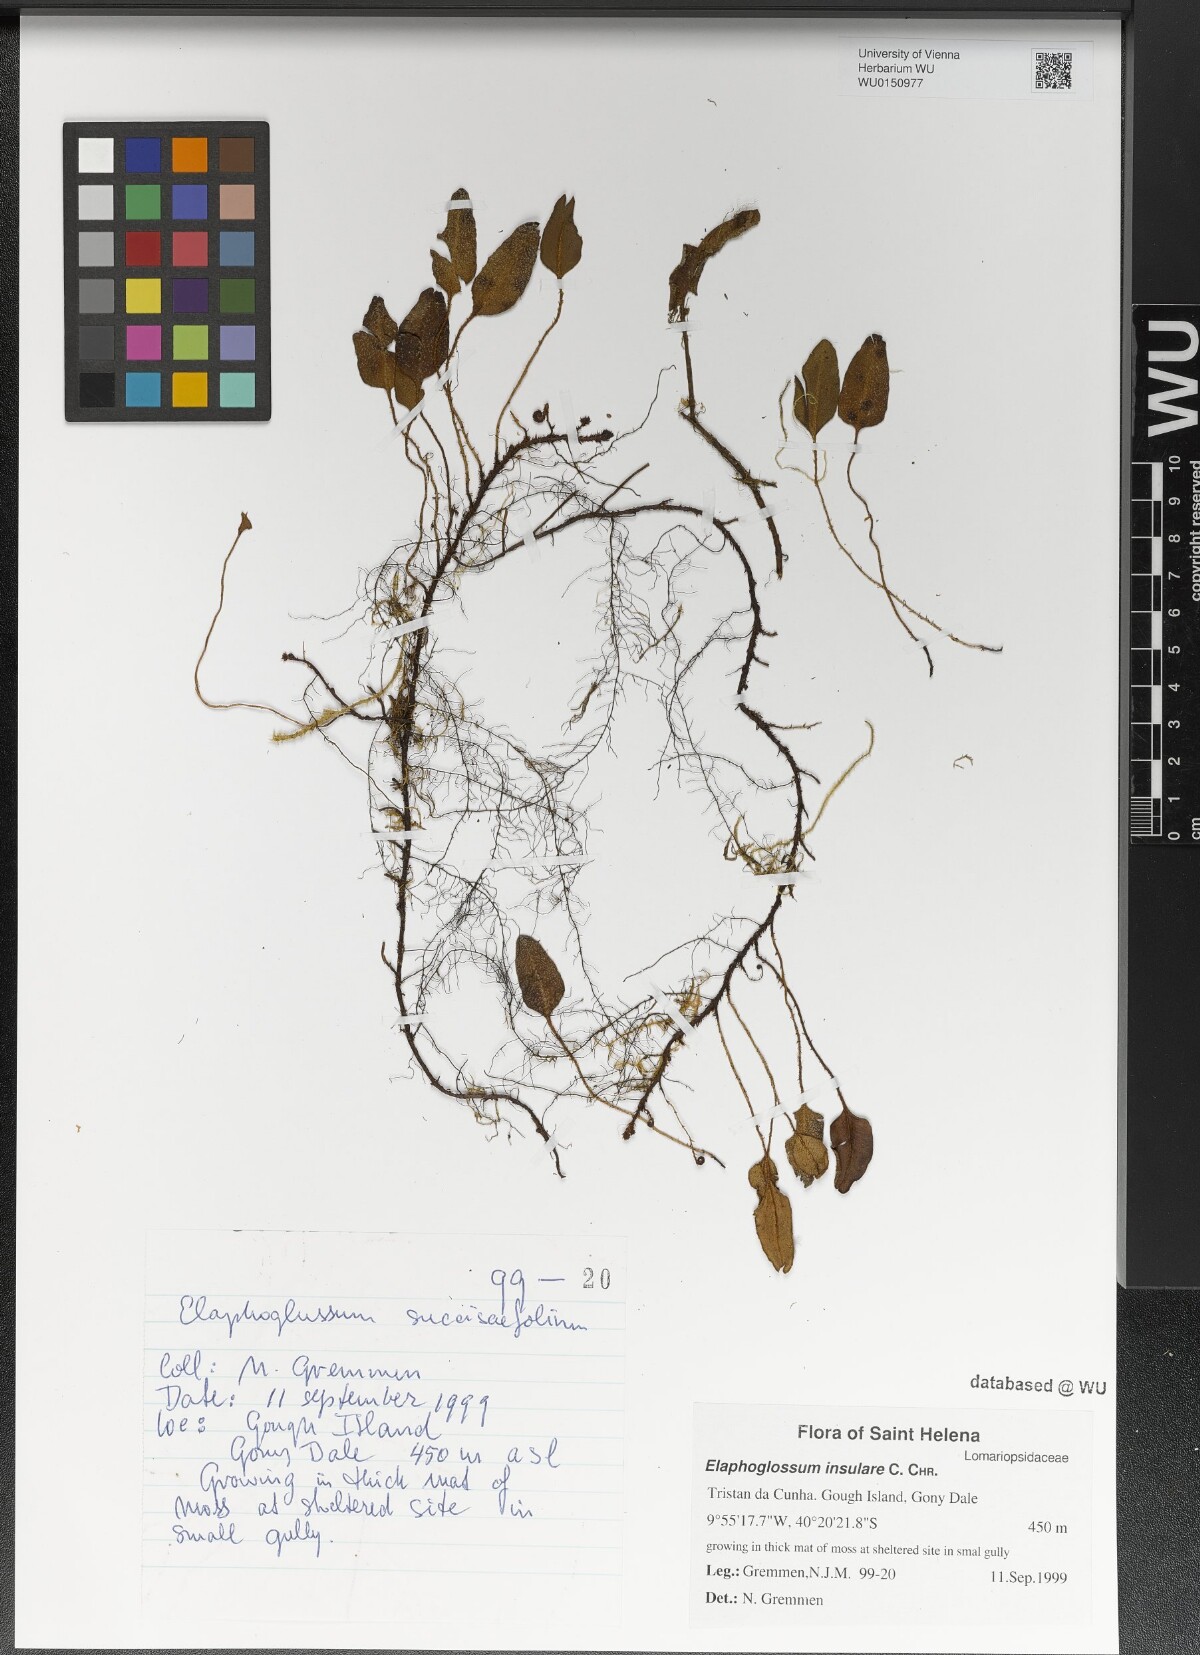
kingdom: Plantae
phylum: Tracheophyta
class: Polypodiopsida
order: Polypodiales
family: Dryopteridaceae
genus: Elaphoglossum
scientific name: Elaphoglossum insulare
